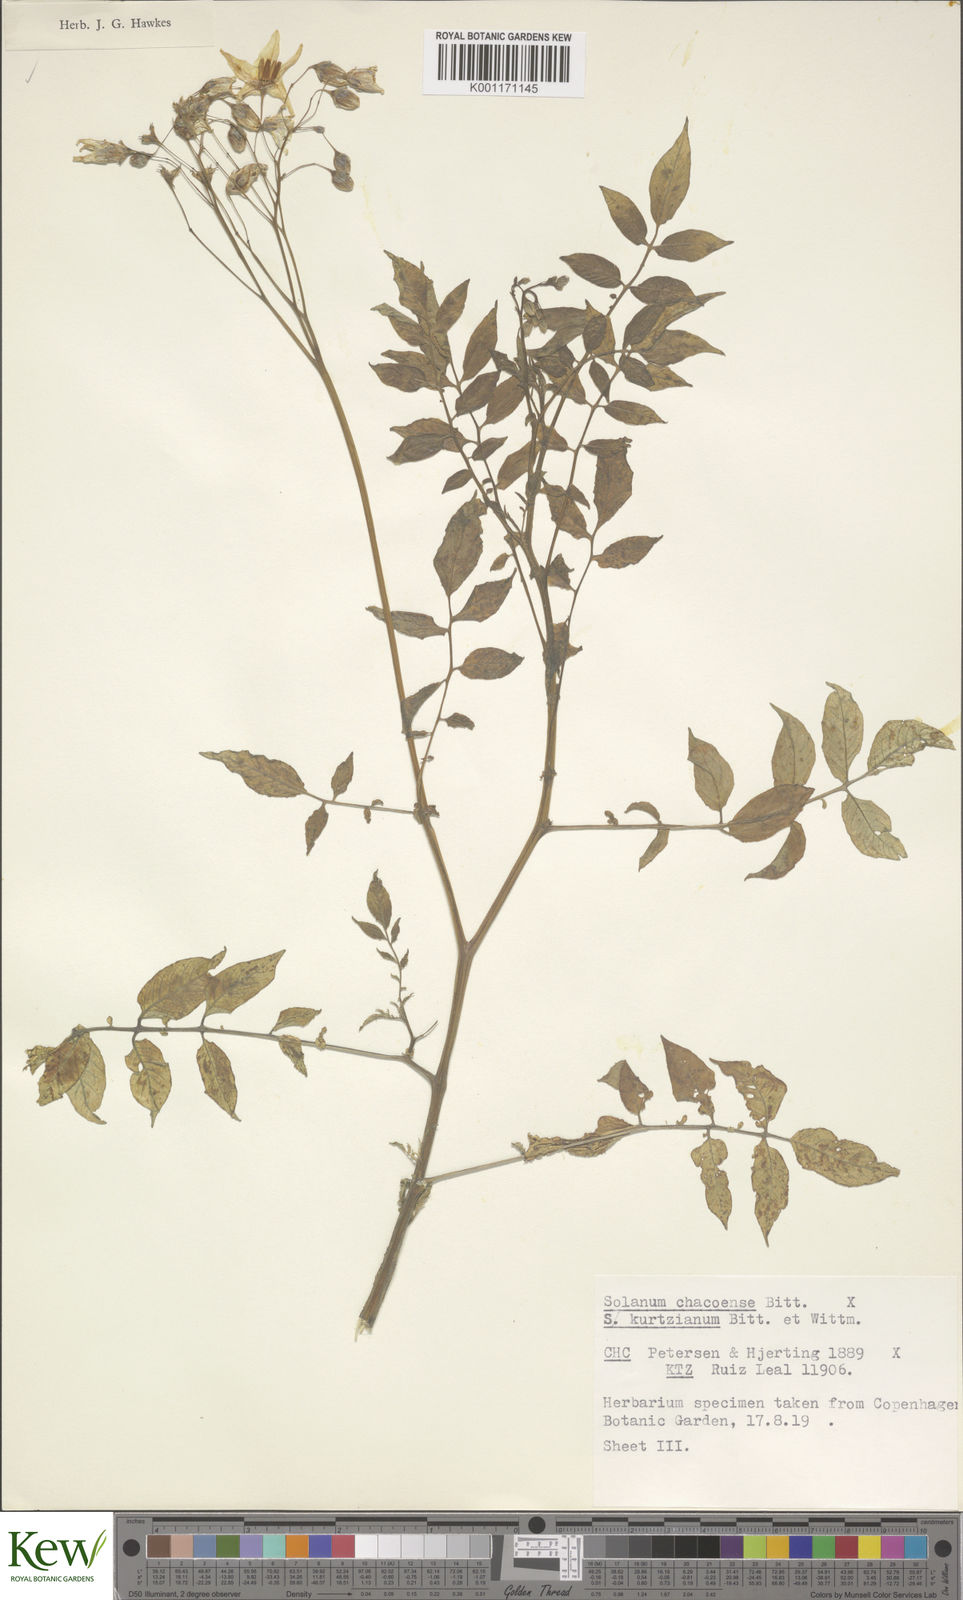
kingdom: Plantae
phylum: Tracheophyta
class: Magnoliopsida
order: Solanales
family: Solanaceae
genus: Solanum
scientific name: Solanum chacoense
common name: Chaco potato
